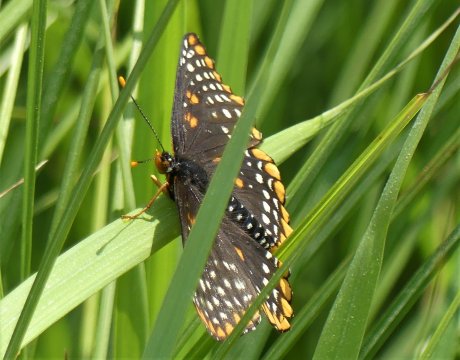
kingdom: Animalia
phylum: Arthropoda
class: Insecta
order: Lepidoptera
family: Nymphalidae
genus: Euphydryas
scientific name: Euphydryas phaeton
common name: Baltimore Checkerspot
